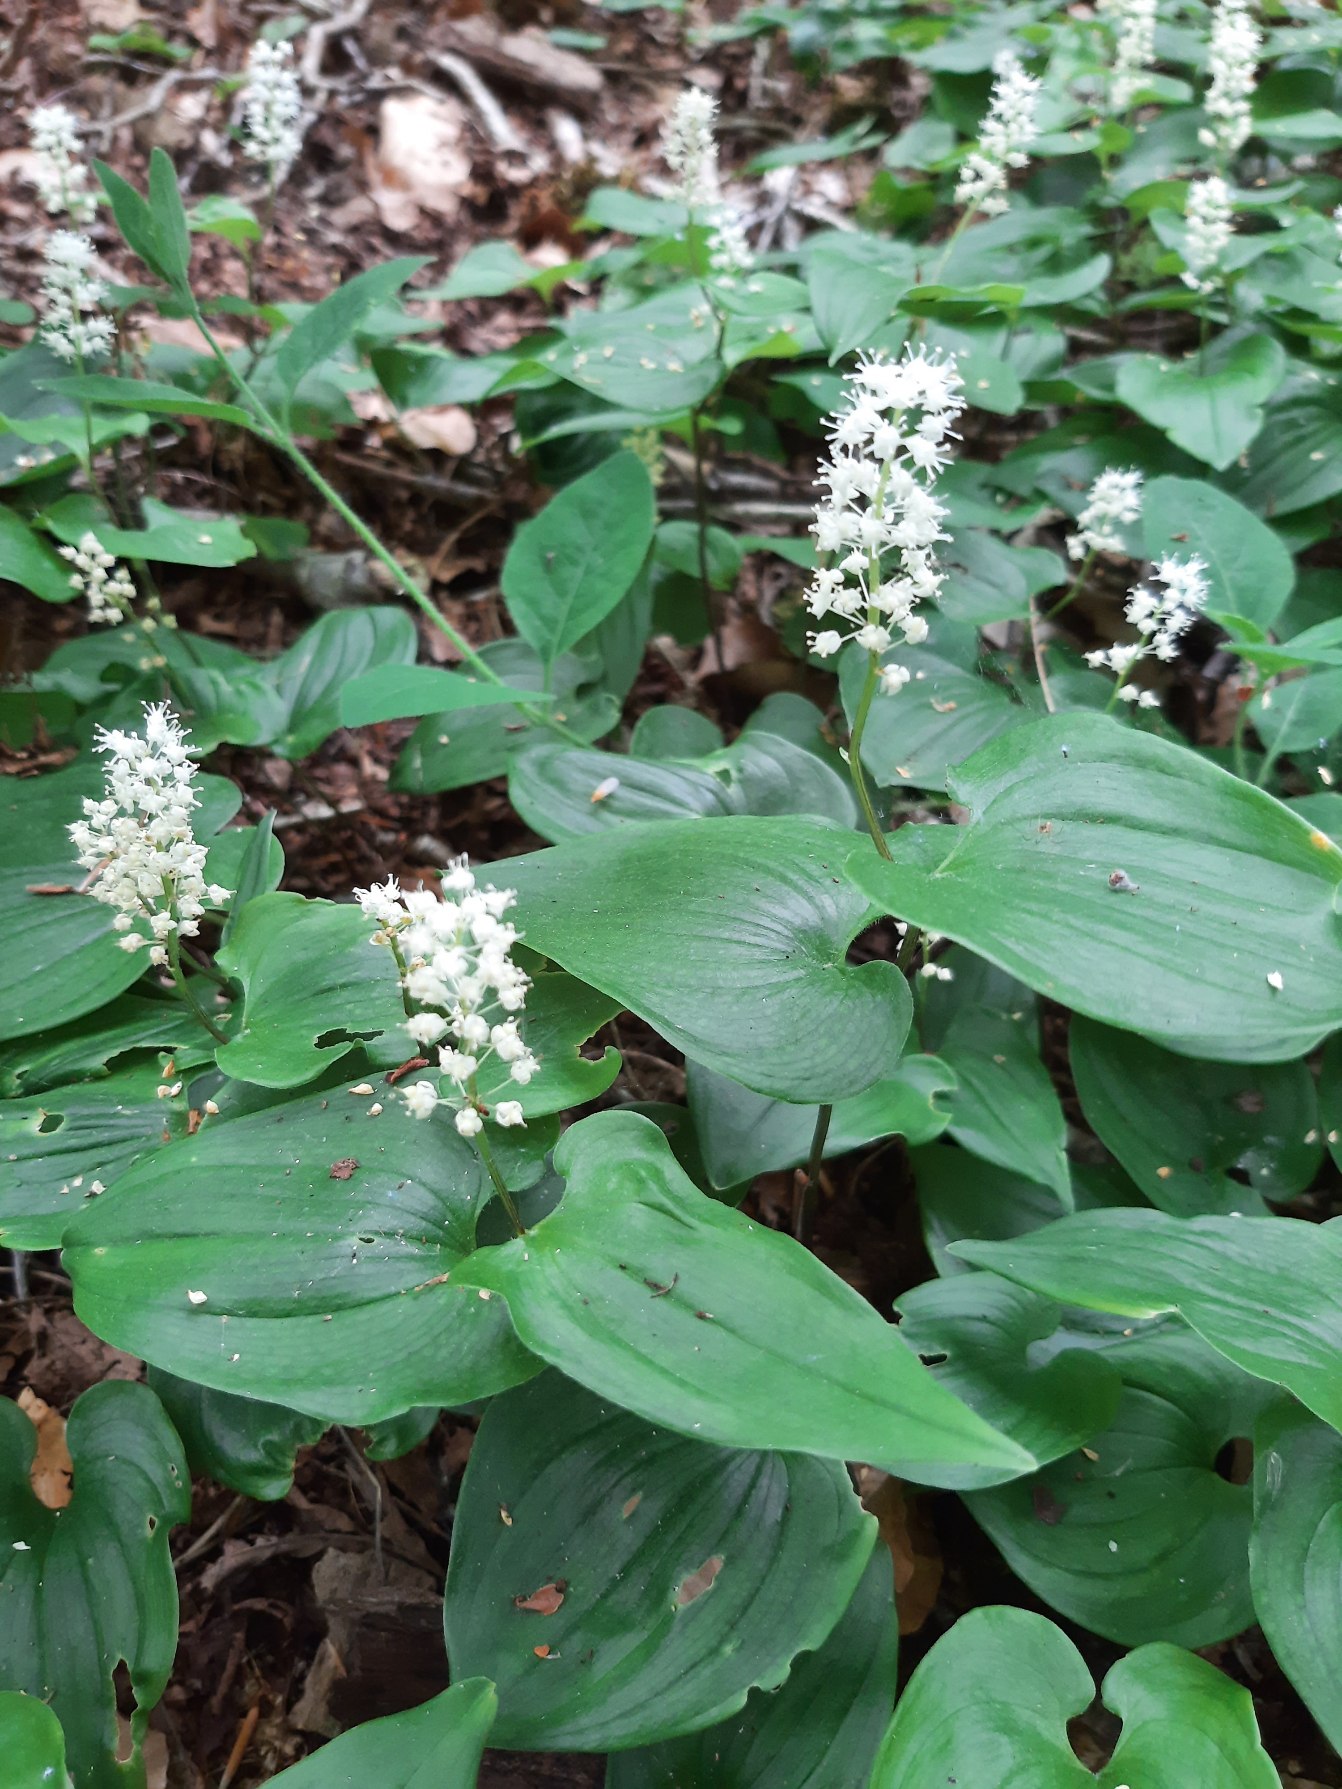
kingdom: Plantae
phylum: Tracheophyta
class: Liliopsida
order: Asparagales
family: Asparagaceae
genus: Maianthemum
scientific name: Maianthemum bifolium
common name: Majblomst
